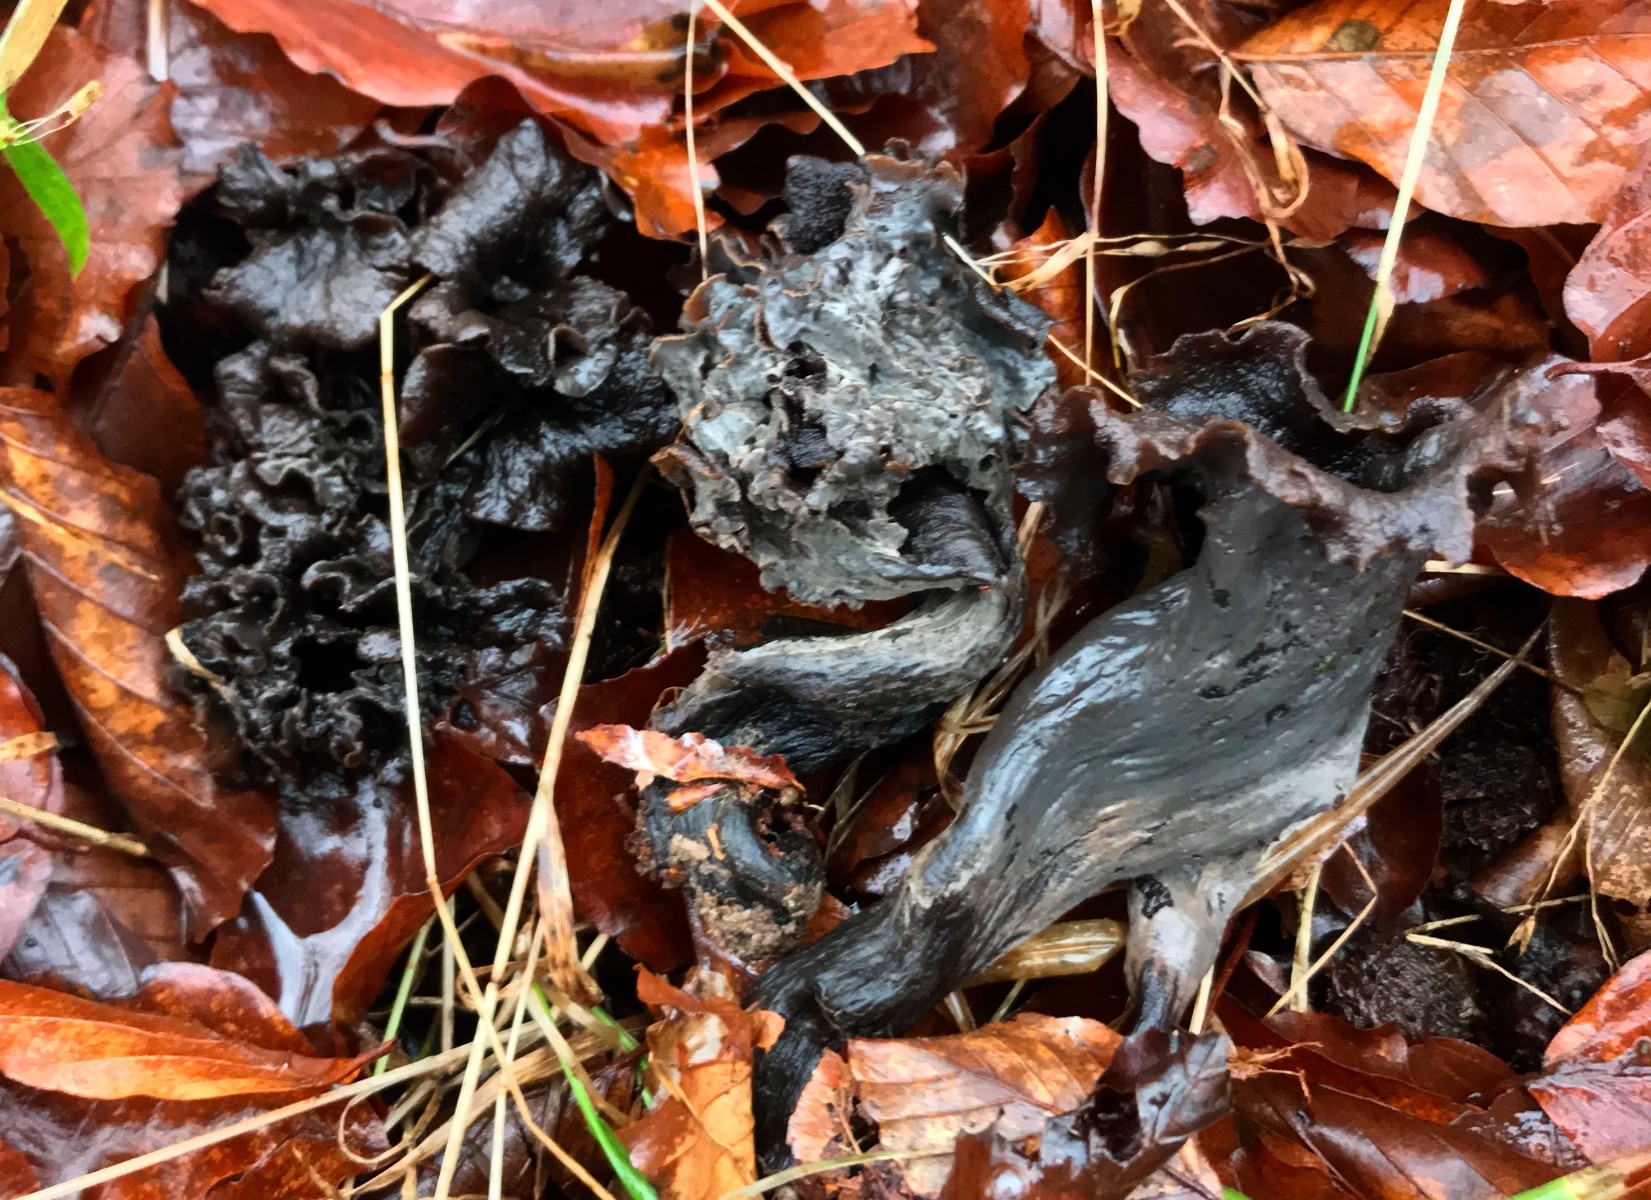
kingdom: Fungi
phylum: Basidiomycota
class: Agaricomycetes
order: Cantharellales
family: Hydnaceae
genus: Craterellus
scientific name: Craterellus cornucopioides
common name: trompetsvamp
